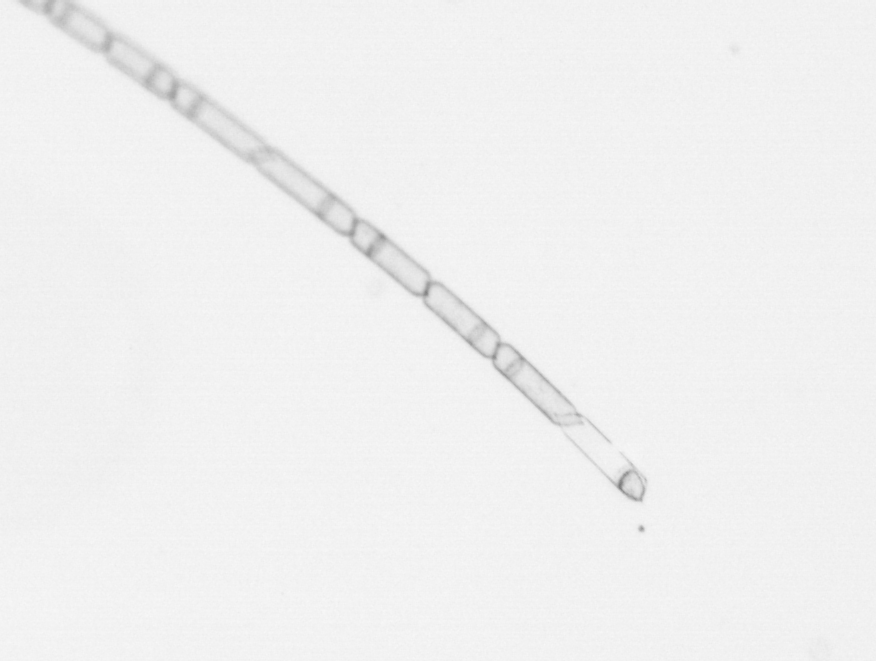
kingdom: Chromista
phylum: Ochrophyta
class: Bacillariophyceae
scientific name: Bacillariophyceae
